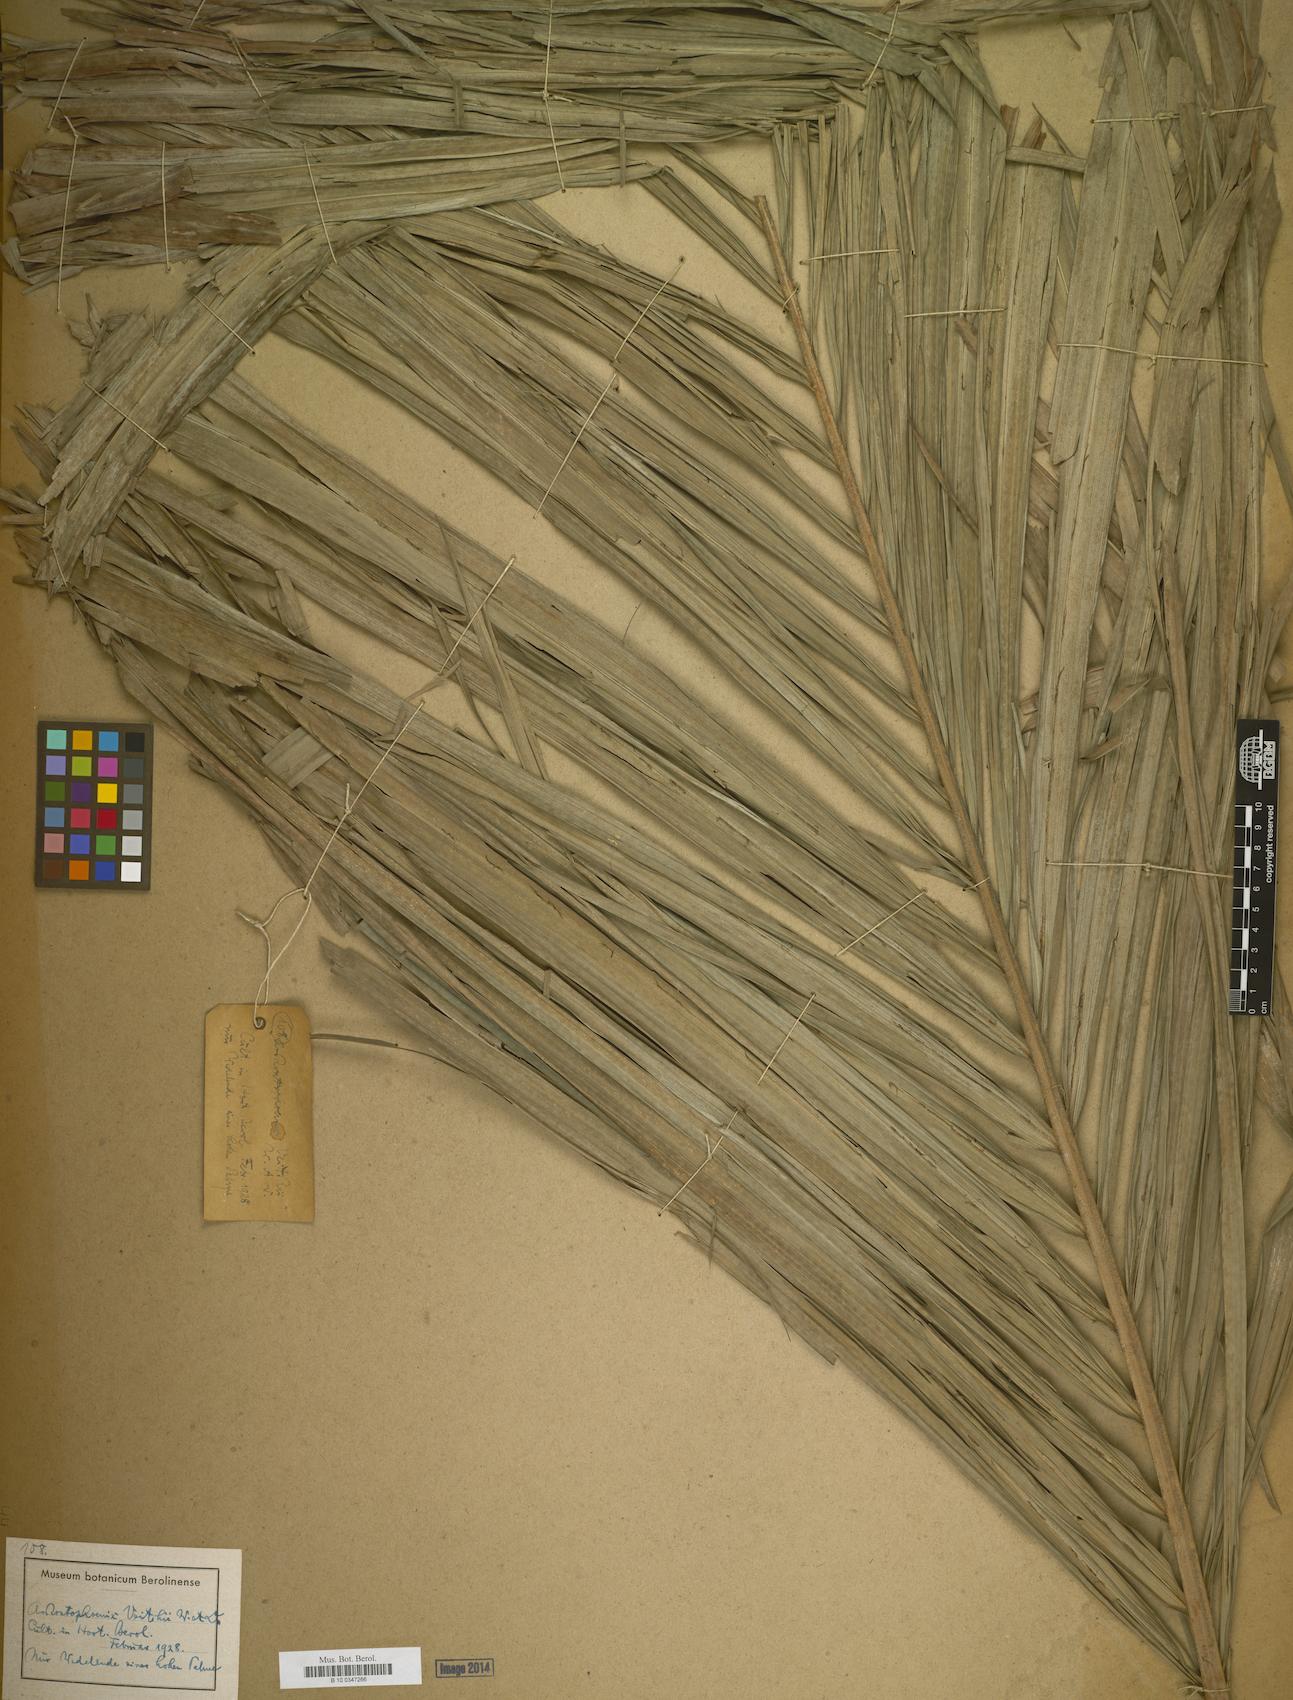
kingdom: Plantae
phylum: Tracheophyta
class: Liliopsida
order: Arecales
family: Arecaceae
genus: Ptychosperma
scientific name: Ptychosperma elegans
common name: Alexander palm
